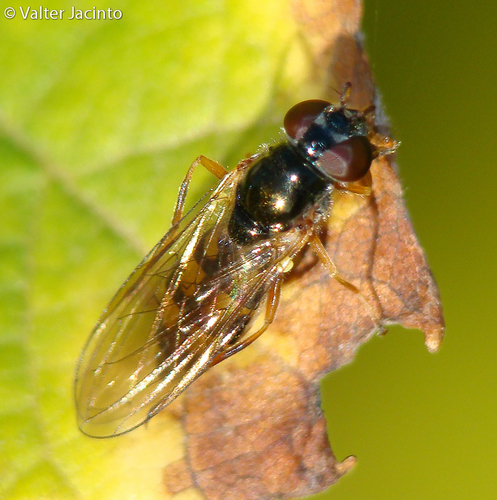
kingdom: Animalia
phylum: Arthropoda
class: Insecta
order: Diptera
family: Syrphidae
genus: Platycheirus
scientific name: Platycheirus
